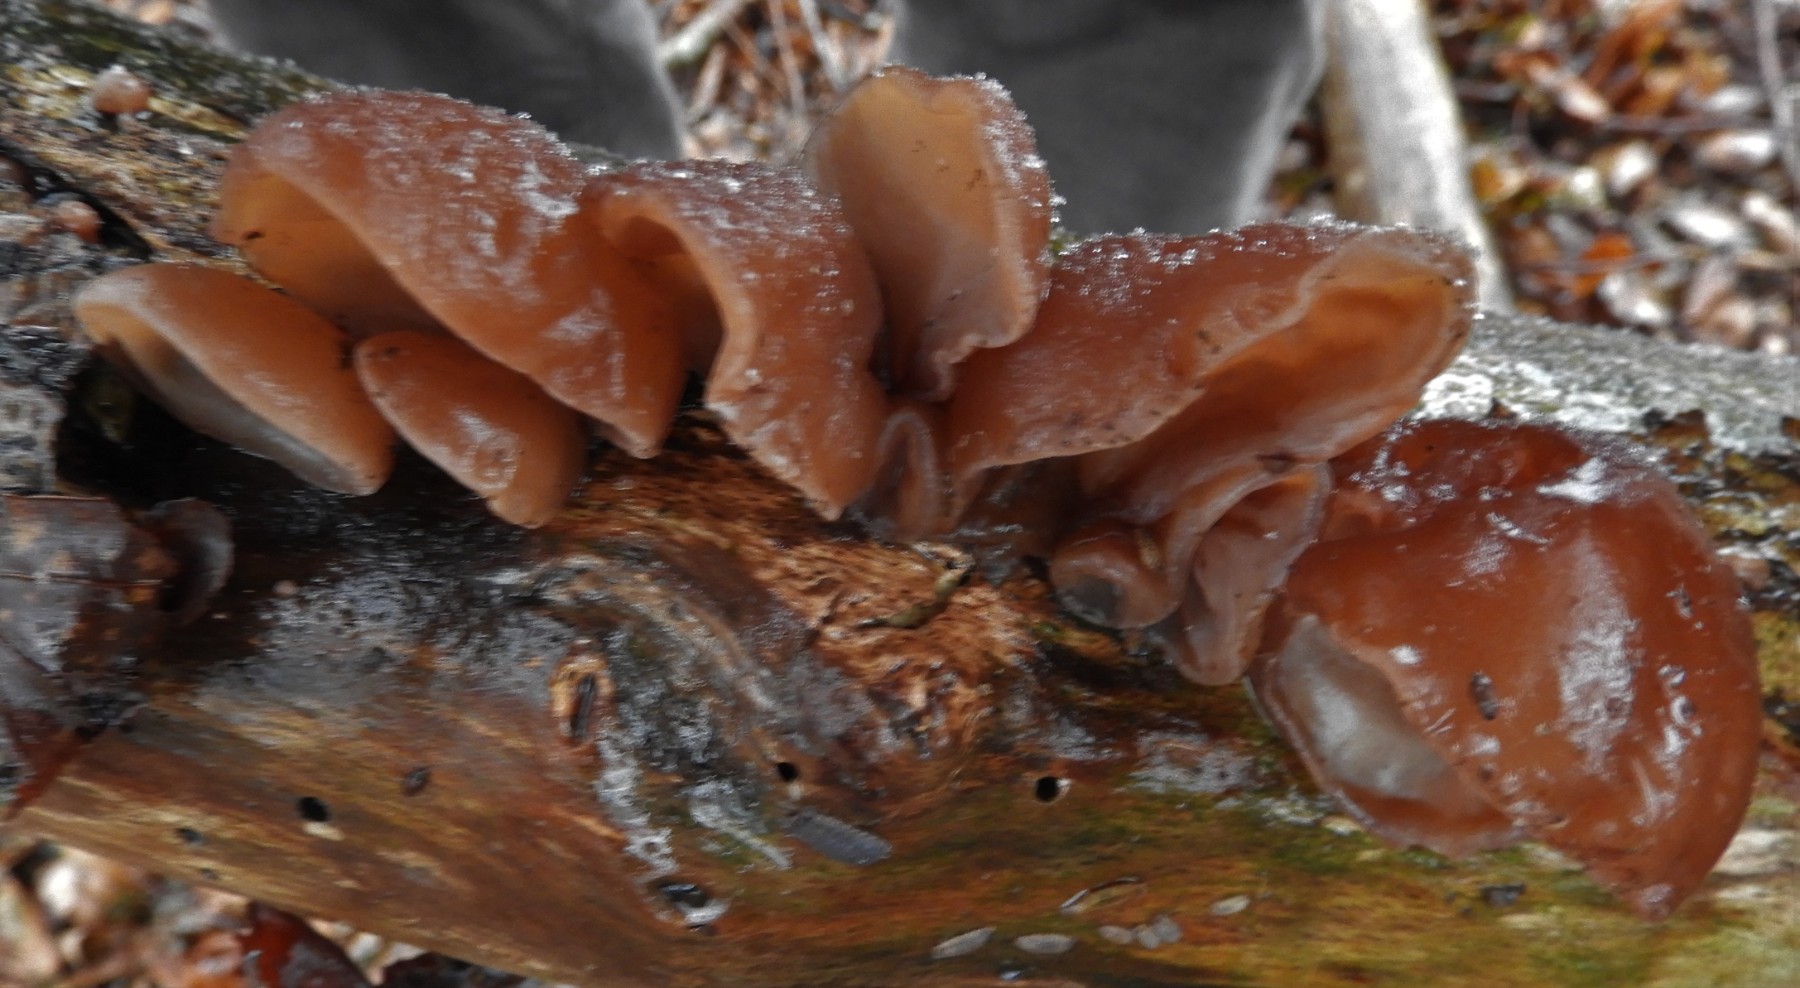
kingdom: Fungi
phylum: Basidiomycota
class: Agaricomycetes
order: Auriculariales
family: Auriculariaceae
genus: Auricularia
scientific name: Auricularia auricula-judae
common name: almindelig judasøre
